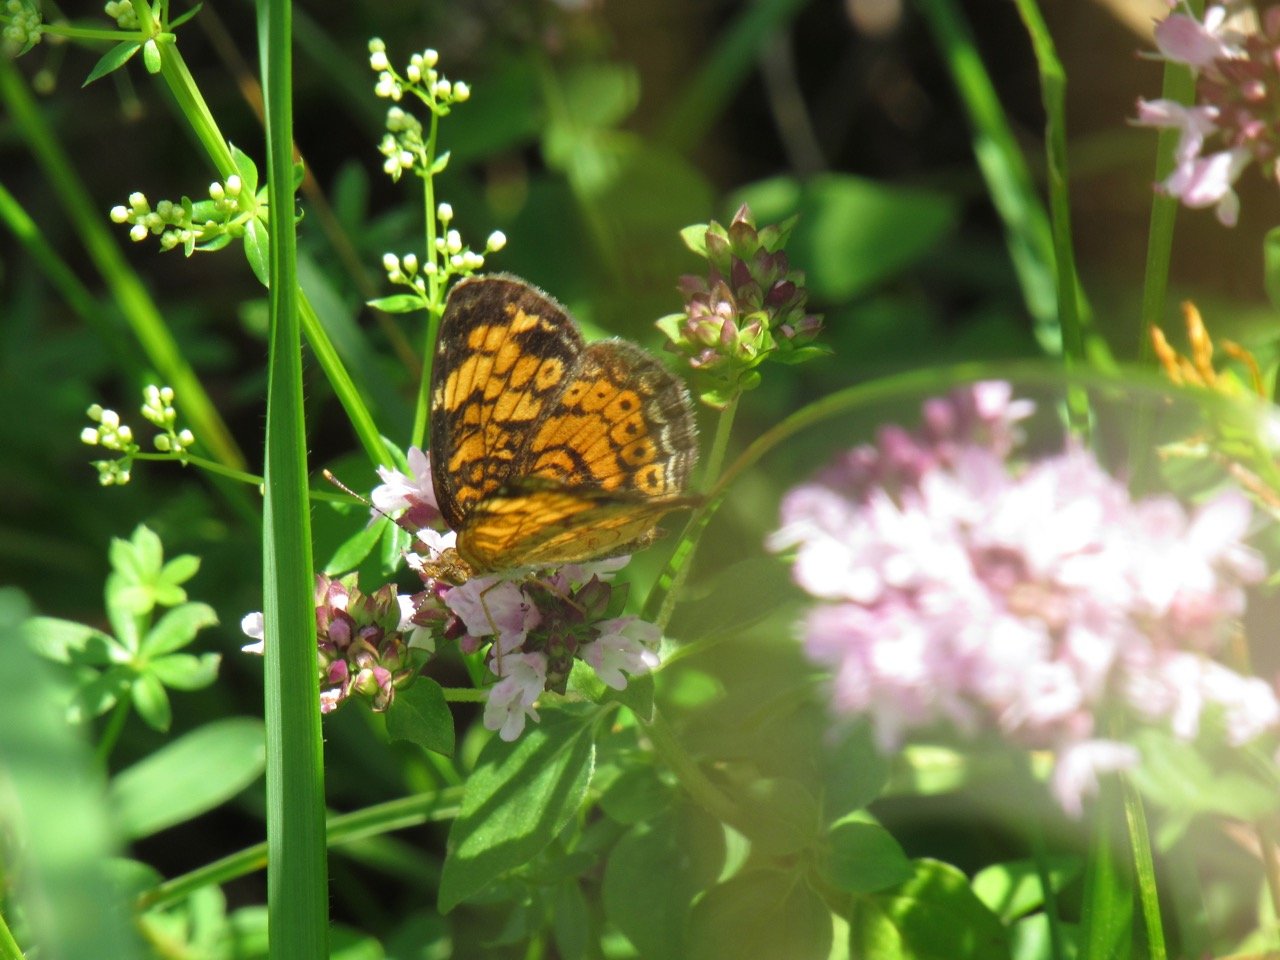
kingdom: Animalia
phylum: Arthropoda
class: Insecta
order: Lepidoptera
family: Nymphalidae
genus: Phyciodes
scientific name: Phyciodes tharos
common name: Pearl Crescent
